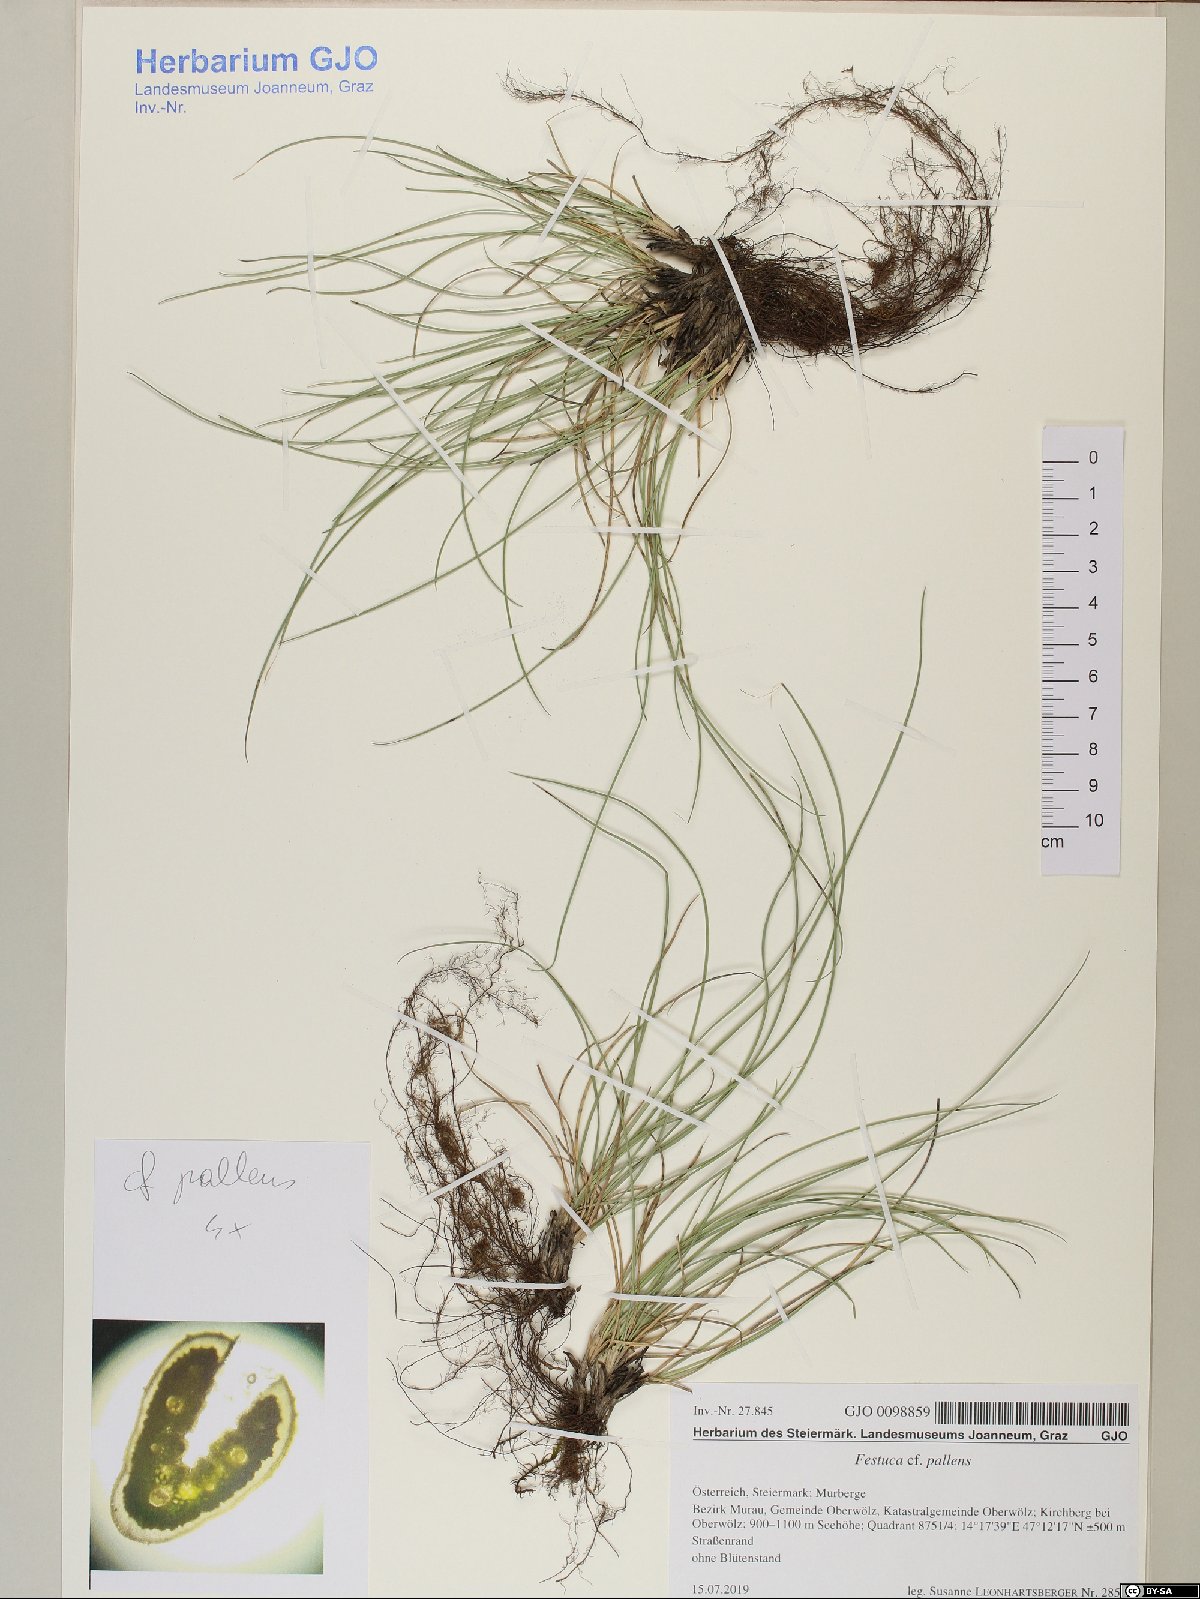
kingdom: Plantae
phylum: Tracheophyta
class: Liliopsida
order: Poales
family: Poaceae
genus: Festuca
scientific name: Festuca pallens
